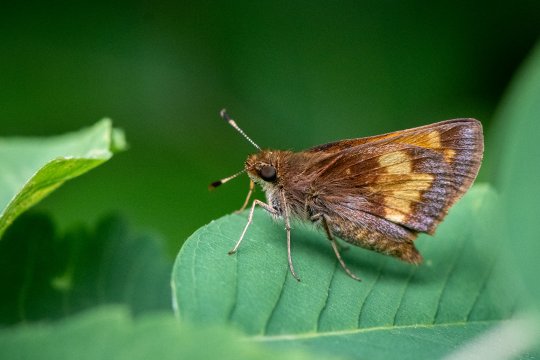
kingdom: Animalia
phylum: Arthropoda
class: Insecta
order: Lepidoptera
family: Hesperiidae
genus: Lon
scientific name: Lon hobomok
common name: Hobomok Skipper
